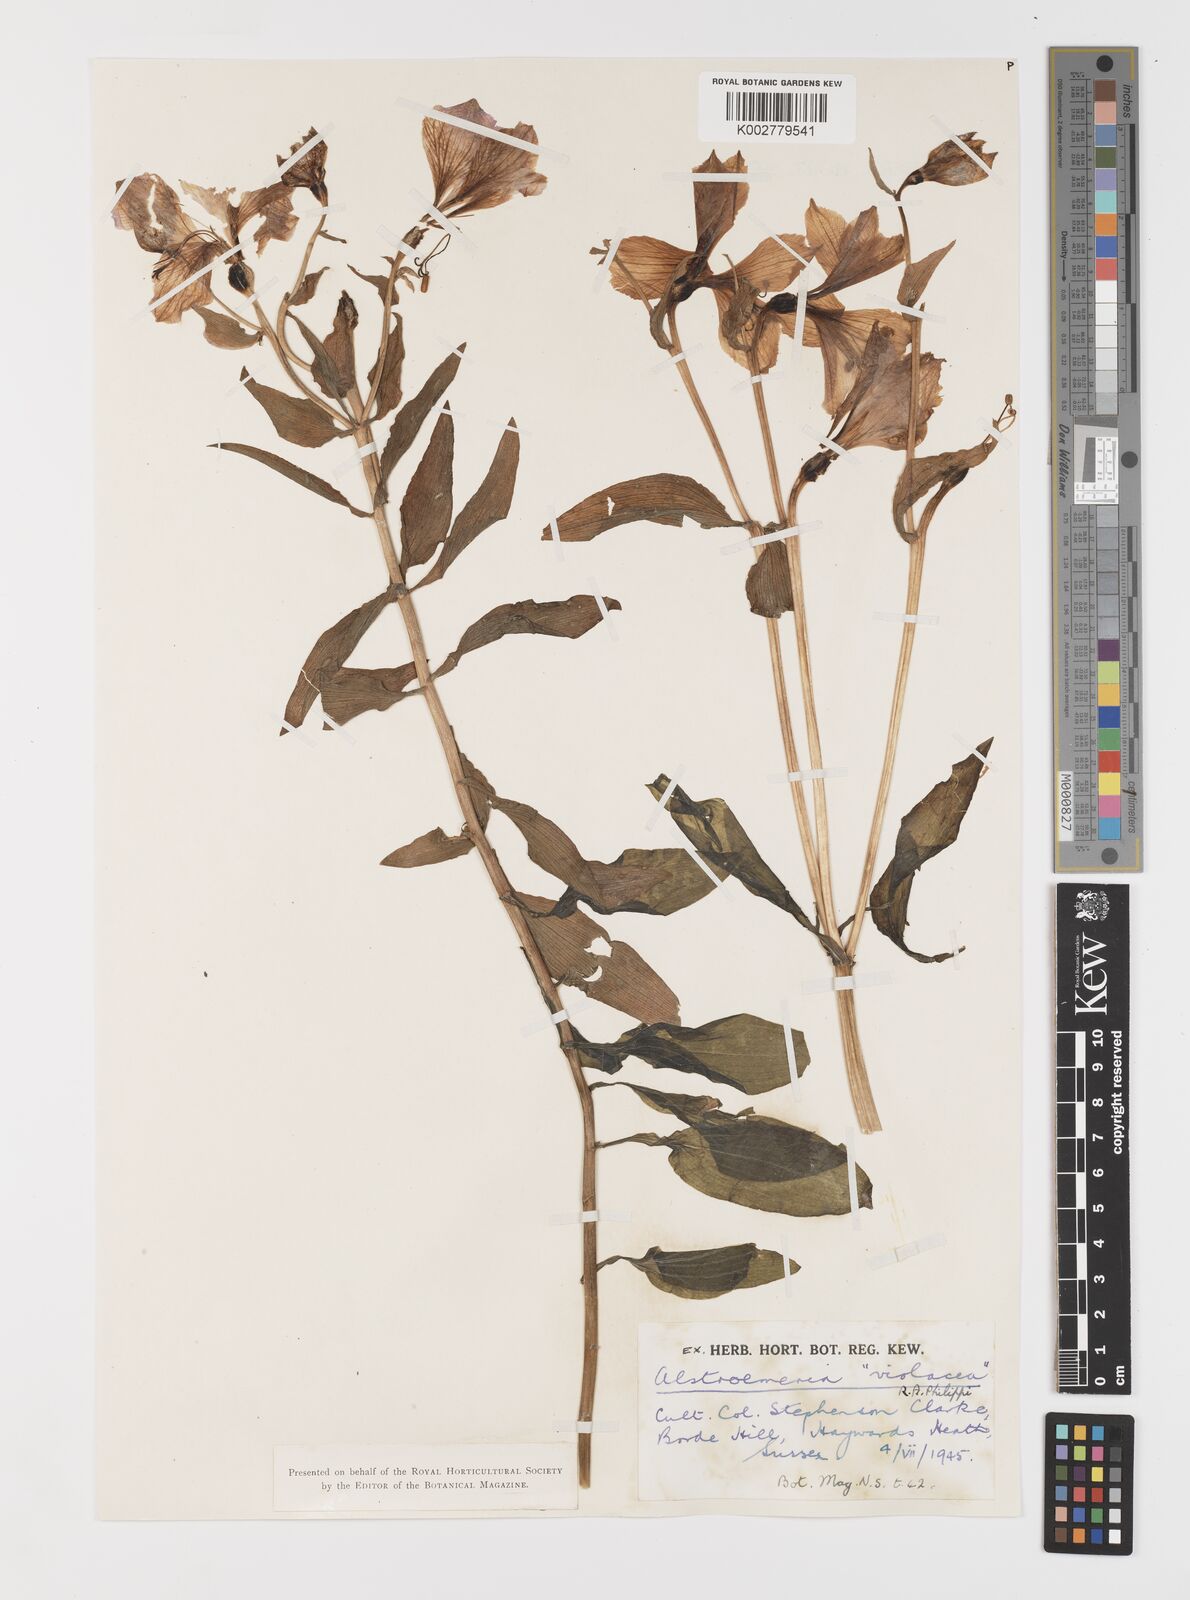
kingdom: Plantae
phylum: Tracheophyta
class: Liliopsida
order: Liliales
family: Alstroemeriaceae
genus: Alstroemeria
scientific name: Alstroemeria paupercula
